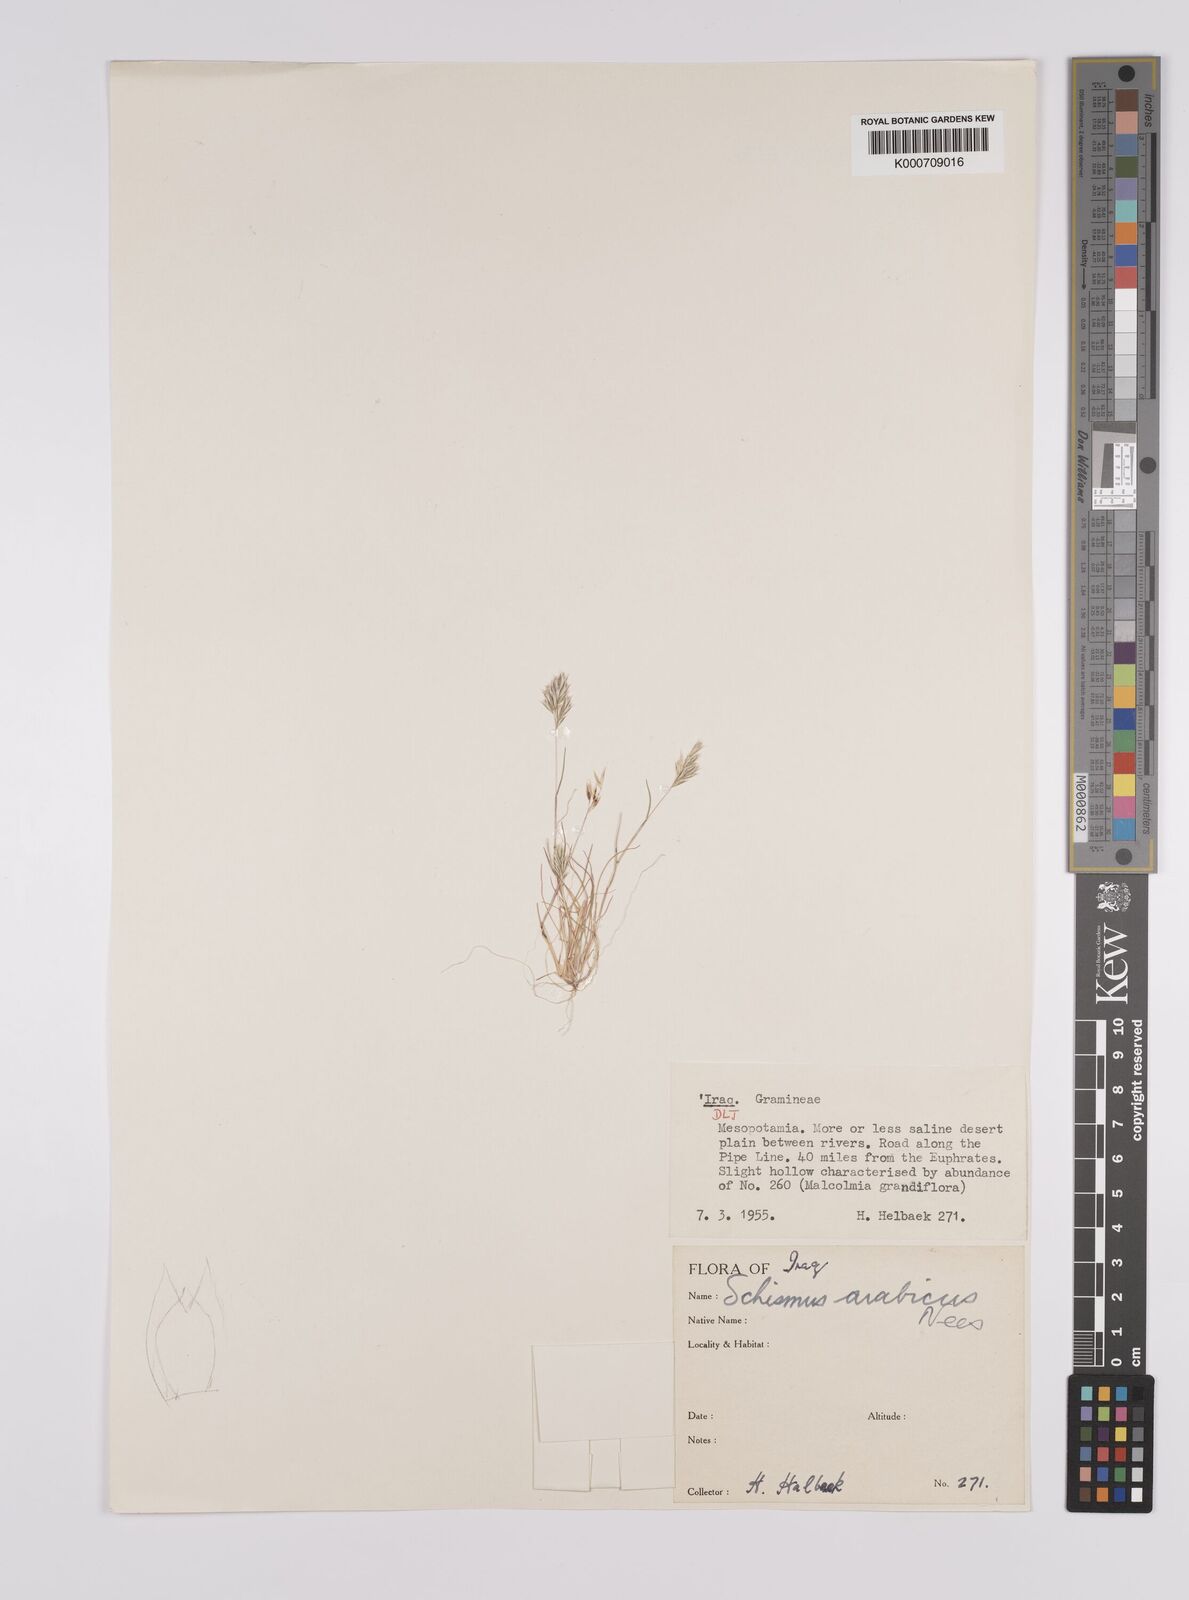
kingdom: Plantae
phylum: Tracheophyta
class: Liliopsida
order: Poales
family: Poaceae
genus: Schismus
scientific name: Schismus arabicus
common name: Arabian schismus
